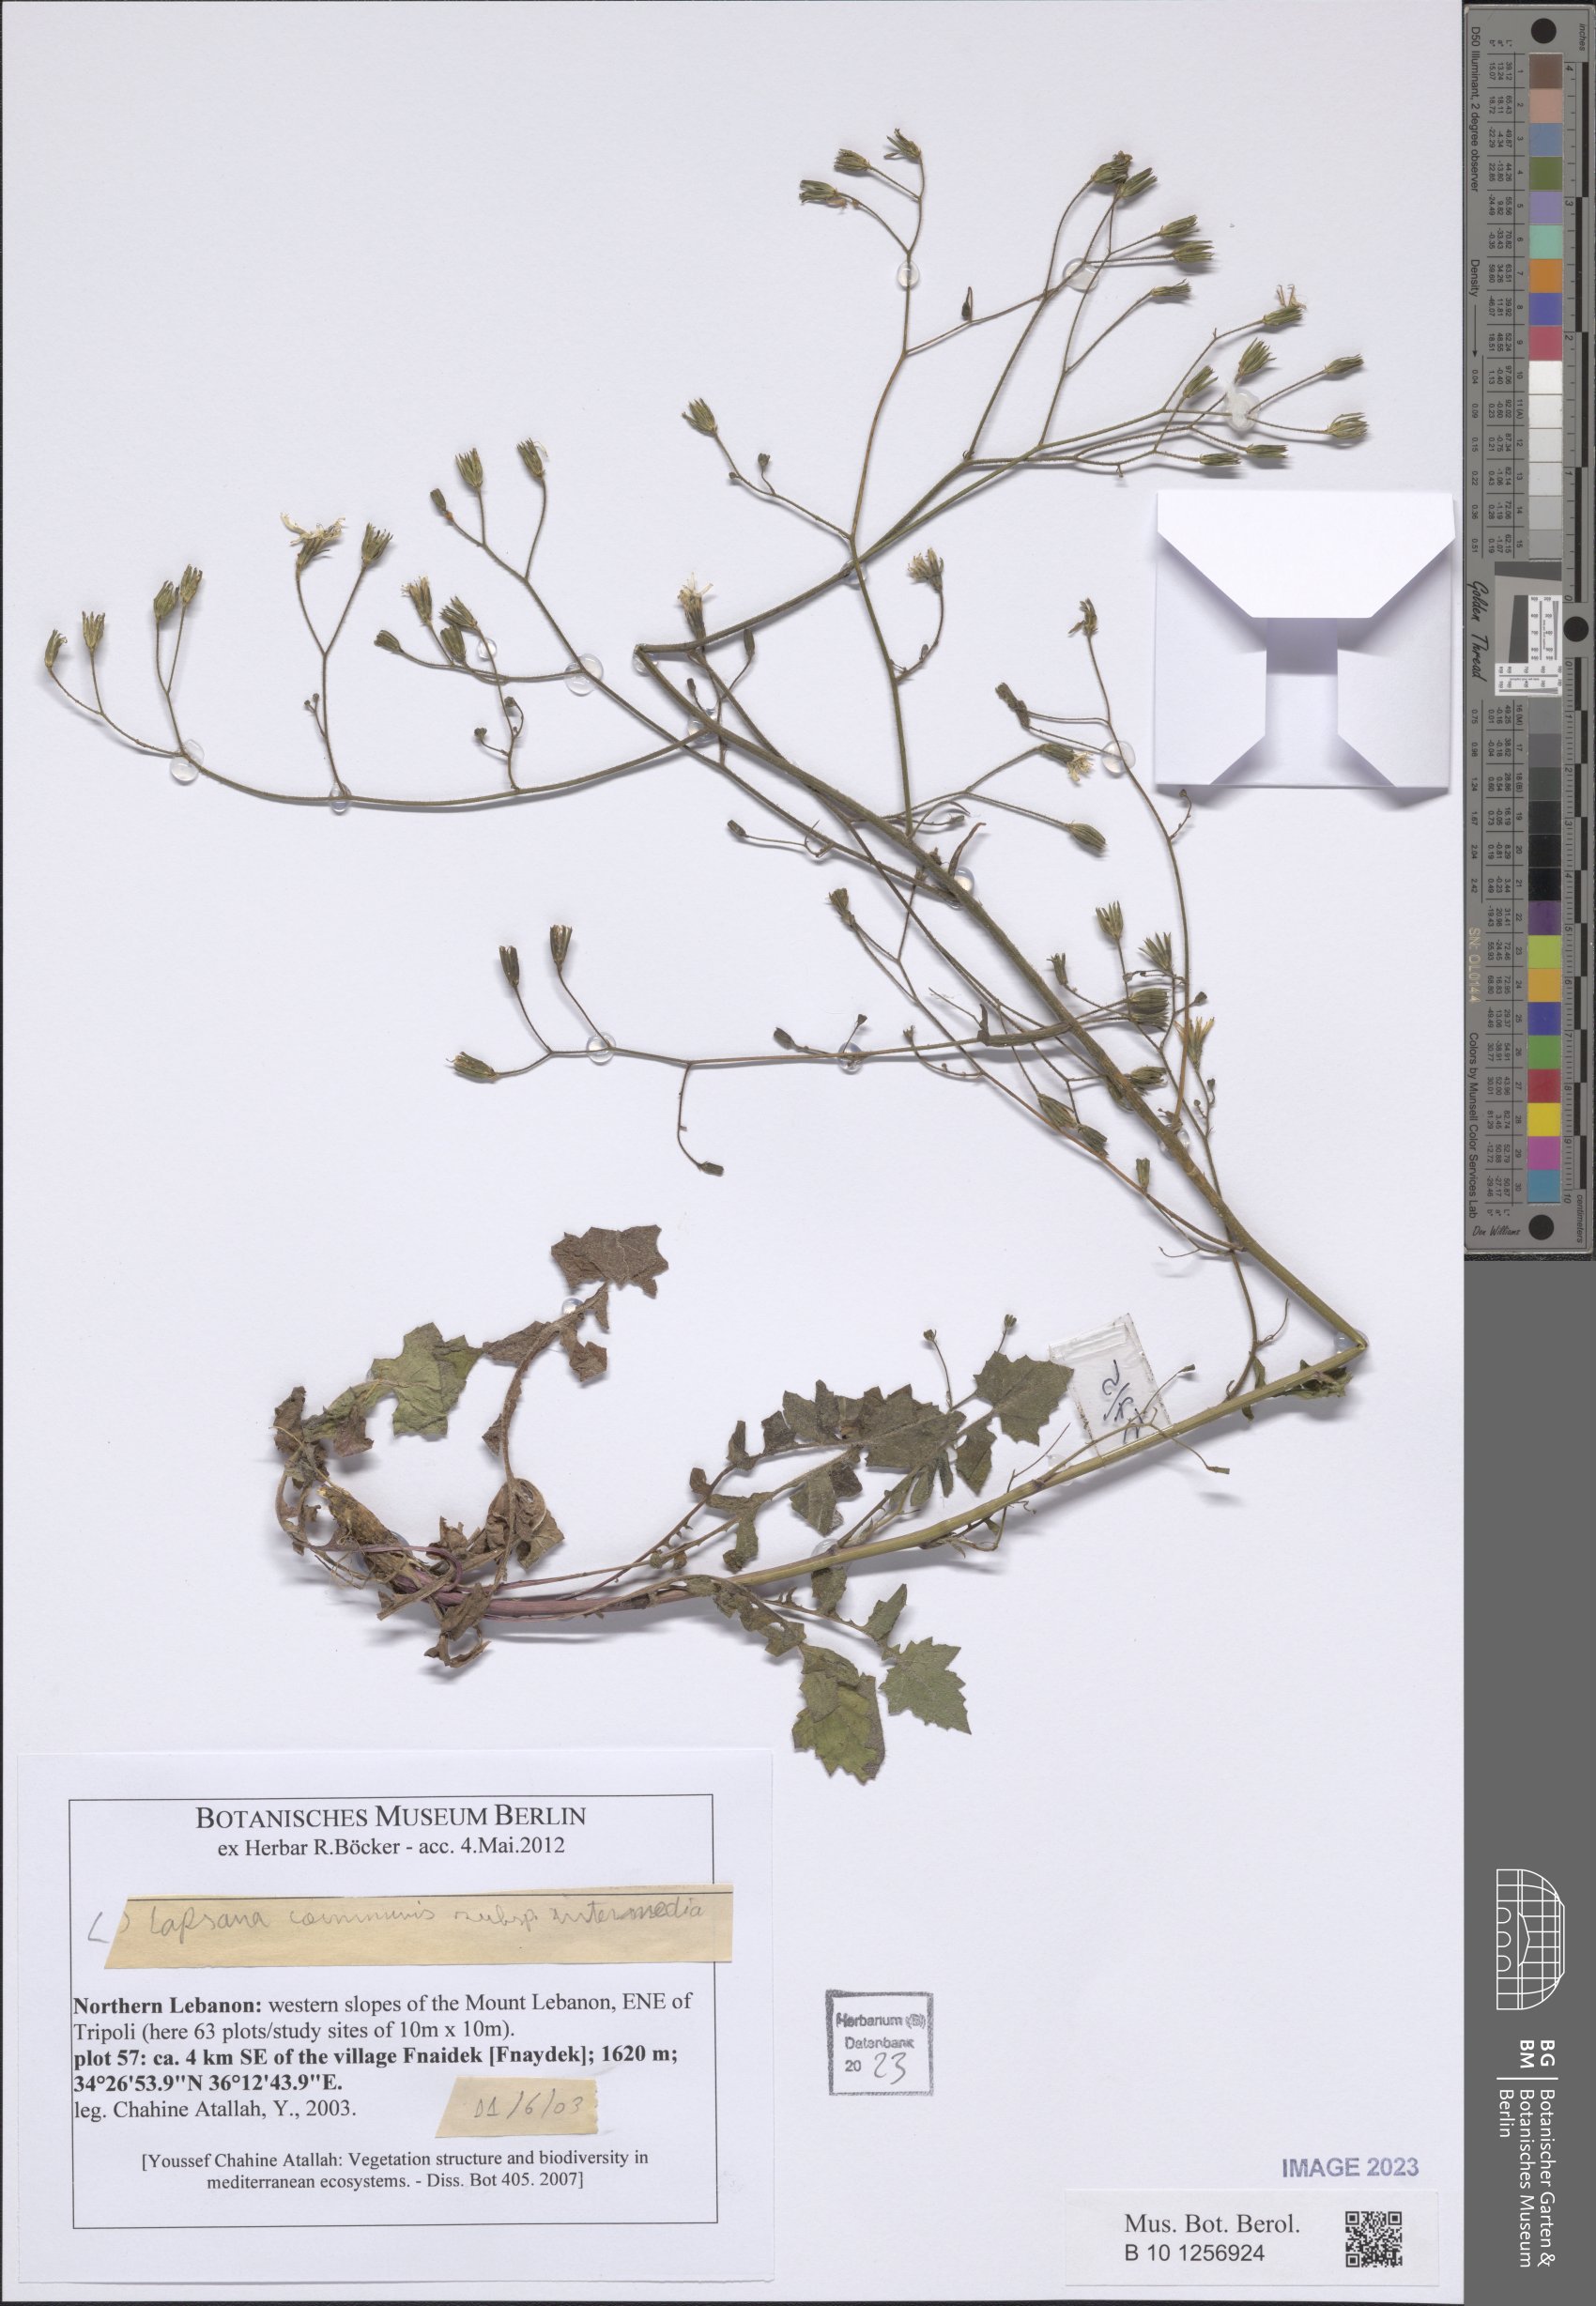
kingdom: Plantae
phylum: Tracheophyta
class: Magnoliopsida
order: Asterales
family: Asteraceae
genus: Lapsana
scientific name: Lapsana communis
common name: Nipplewort
